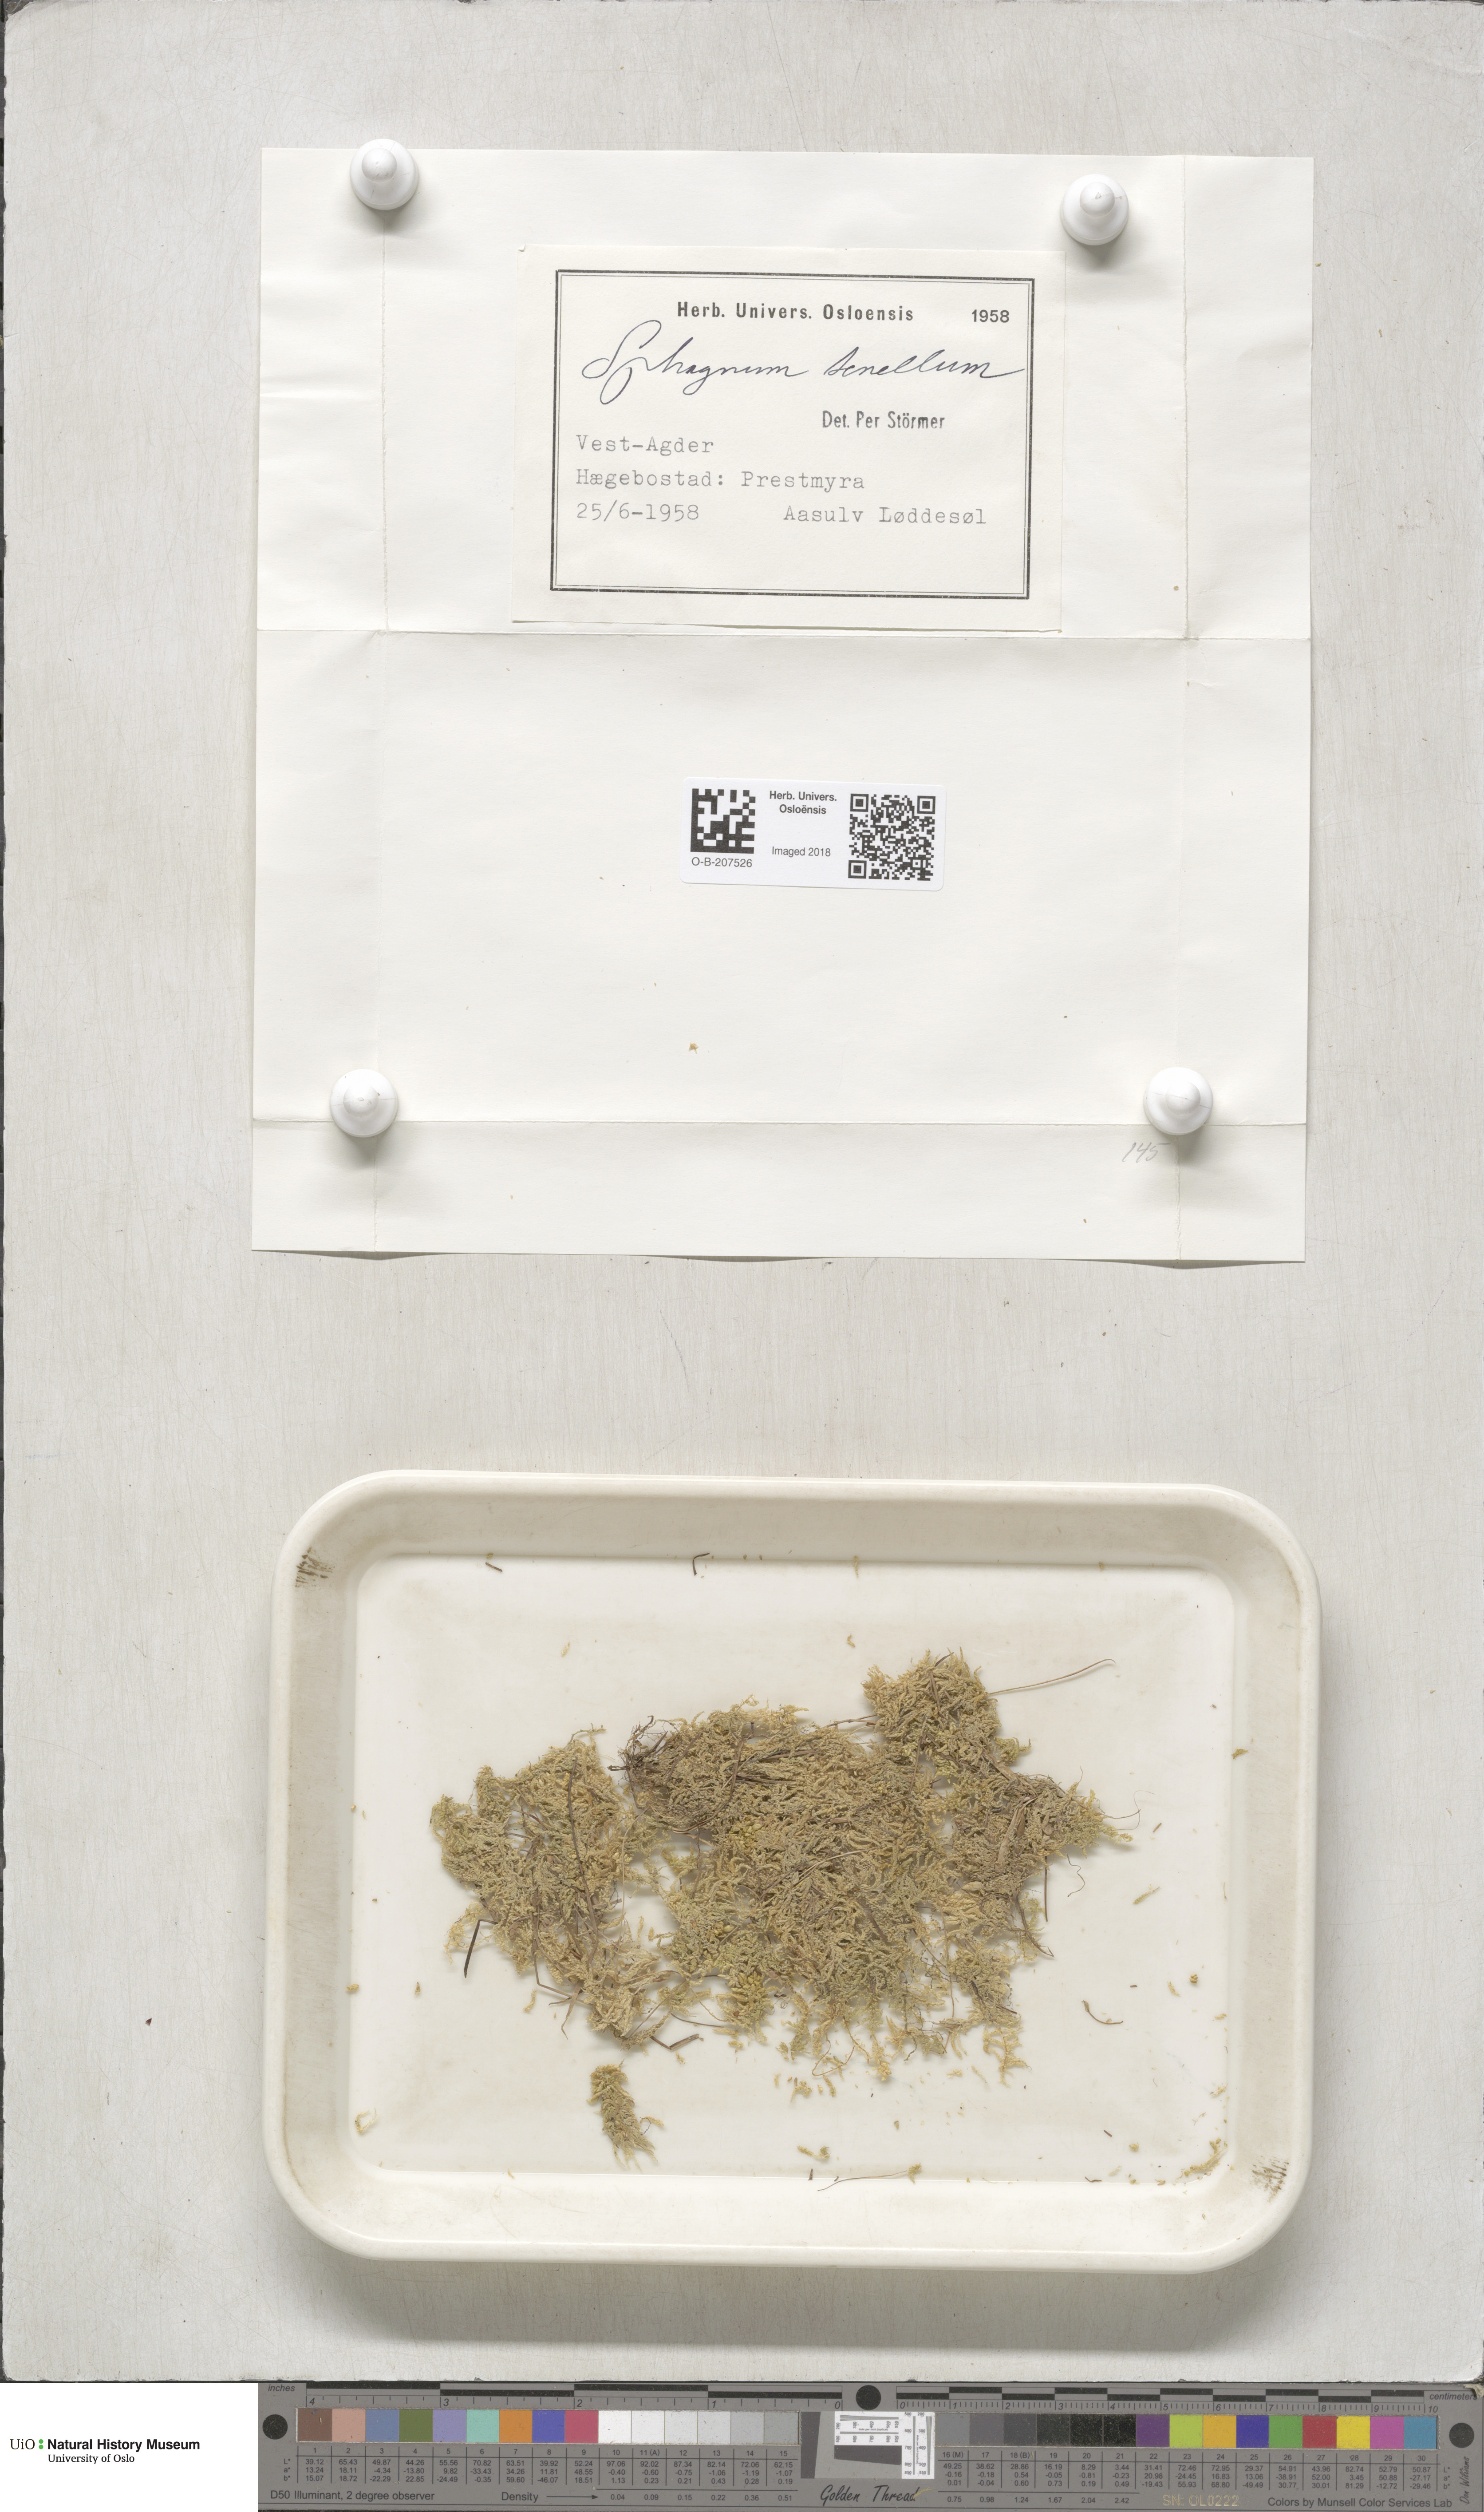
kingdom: Plantae
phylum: Bryophyta
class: Sphagnopsida
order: Sphagnales
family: Sphagnaceae
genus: Sphagnum
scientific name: Sphagnum tenellum
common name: Soft bog-moss
